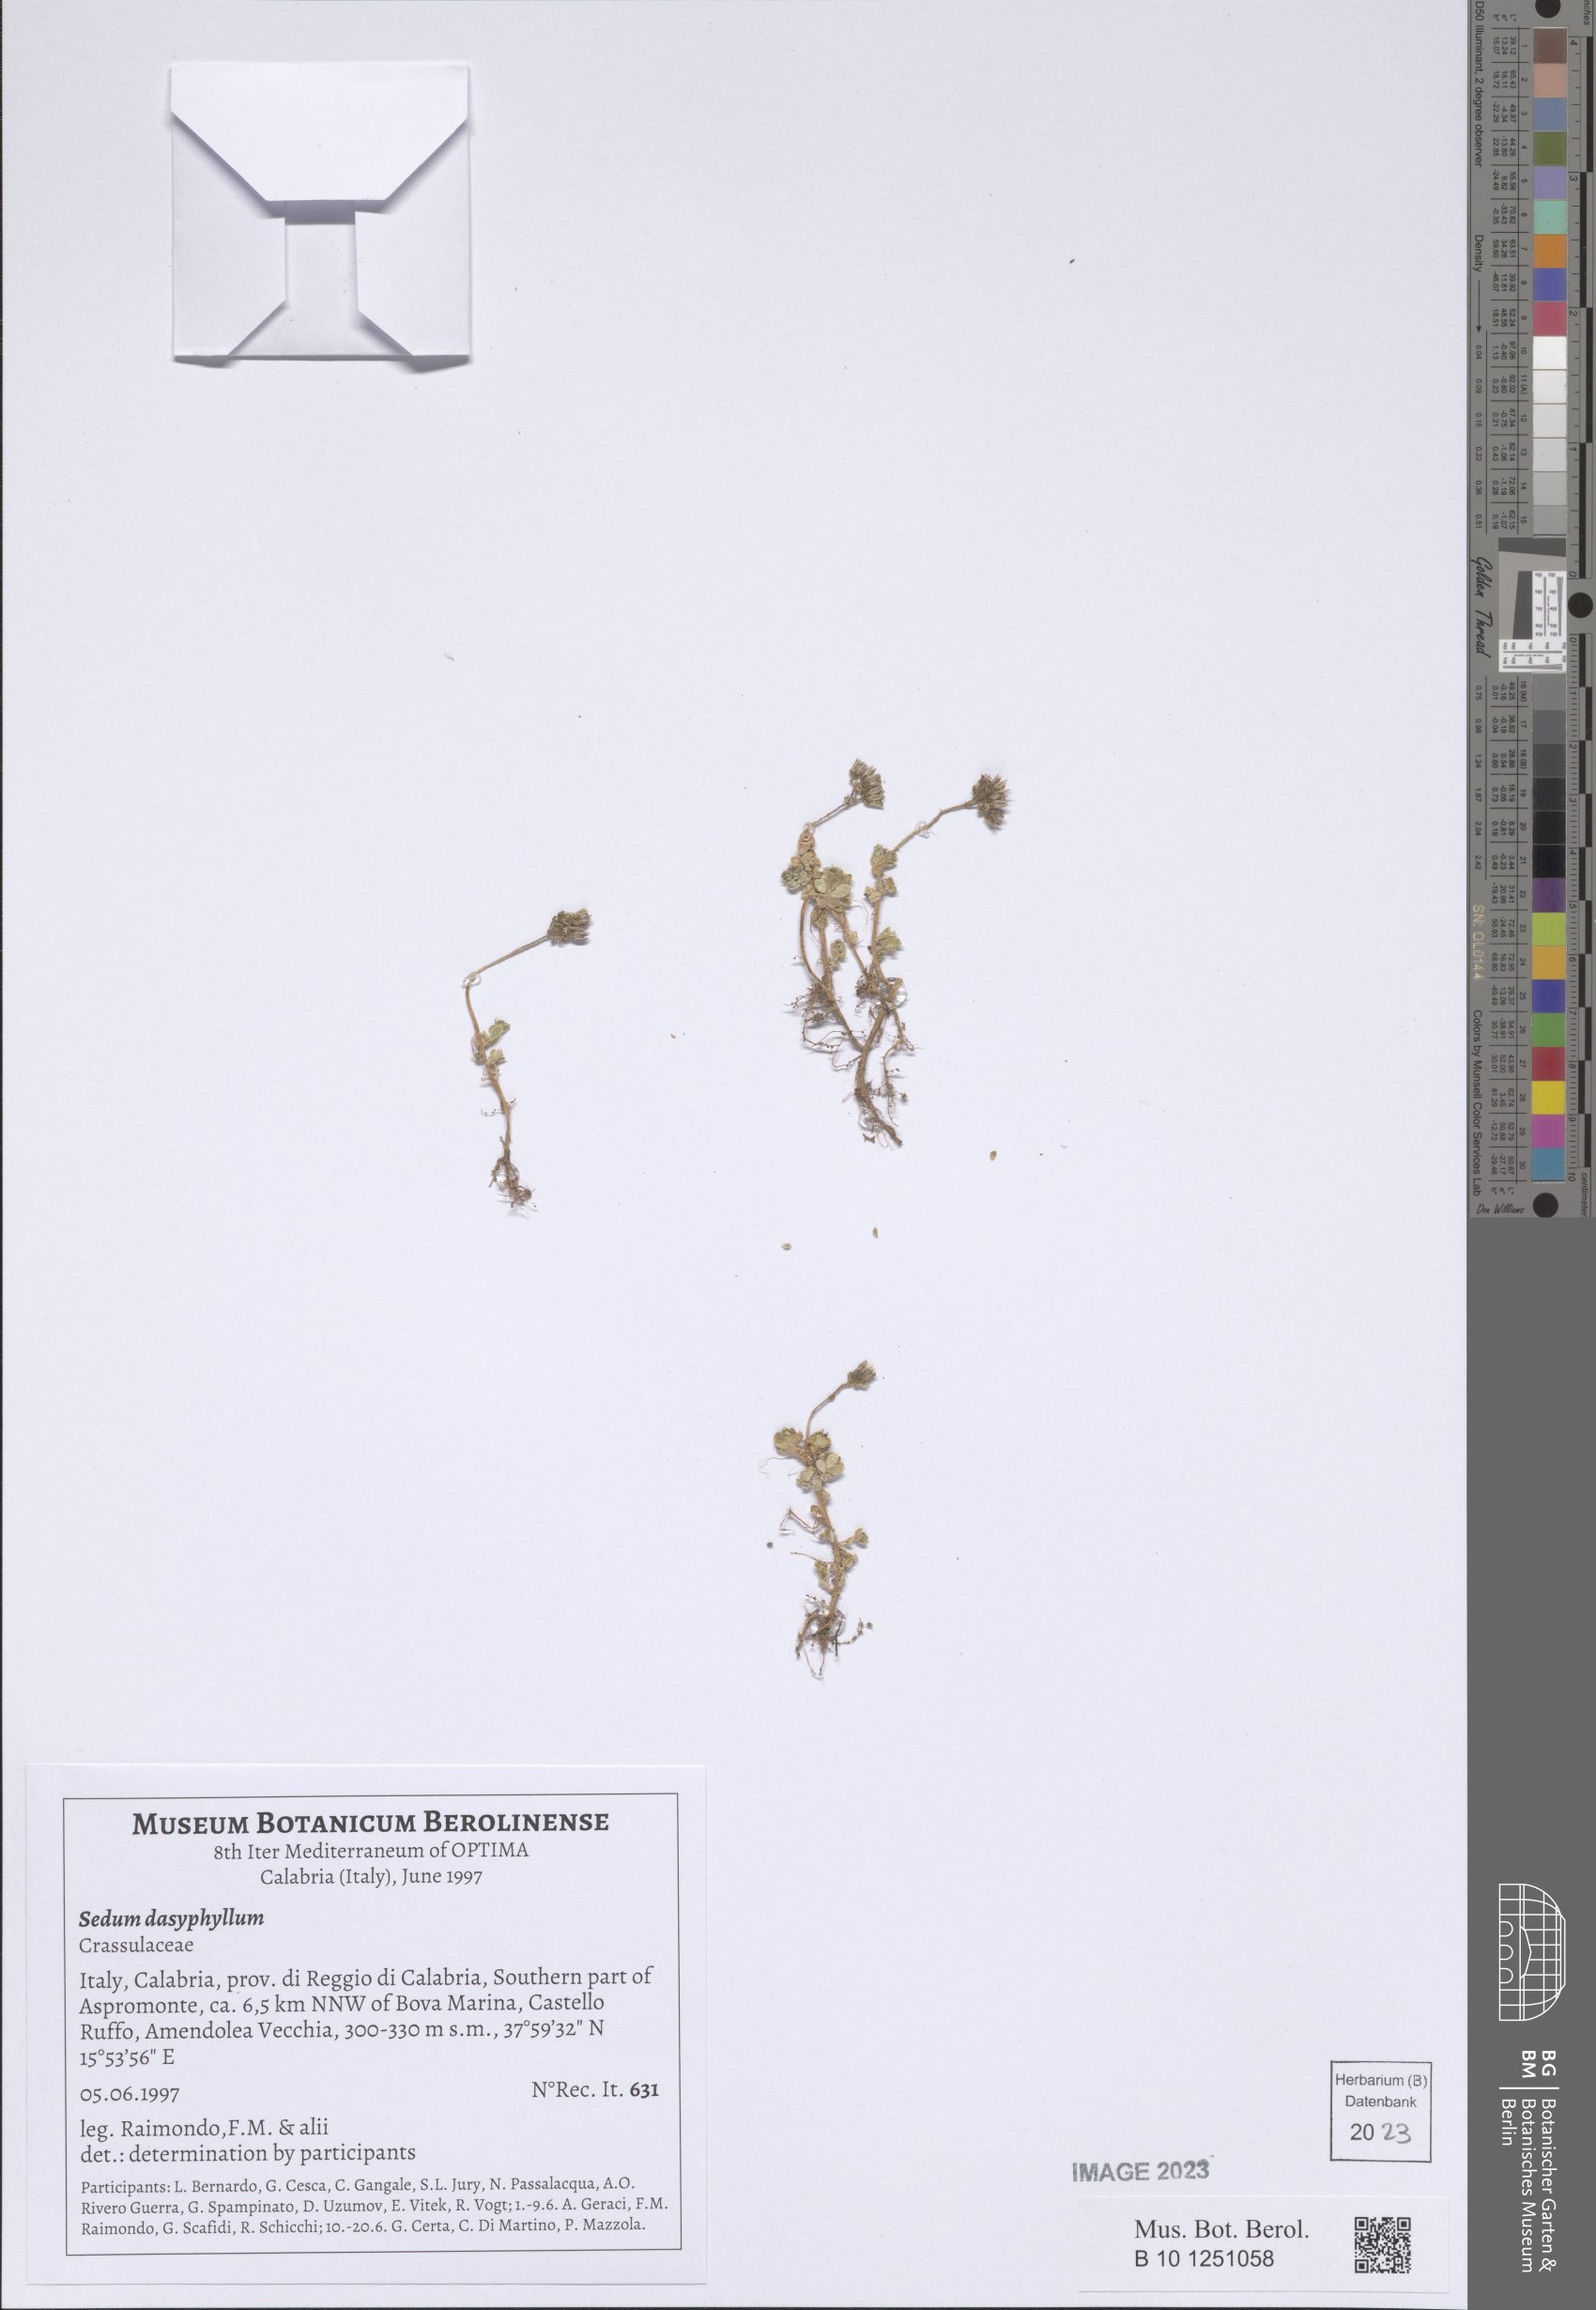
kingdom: Plantae
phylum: Tracheophyta
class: Magnoliopsida
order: Saxifragales
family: Crassulaceae
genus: Sedum
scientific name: Sedum dasyphyllum
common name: Thick-leaf stonecrop
